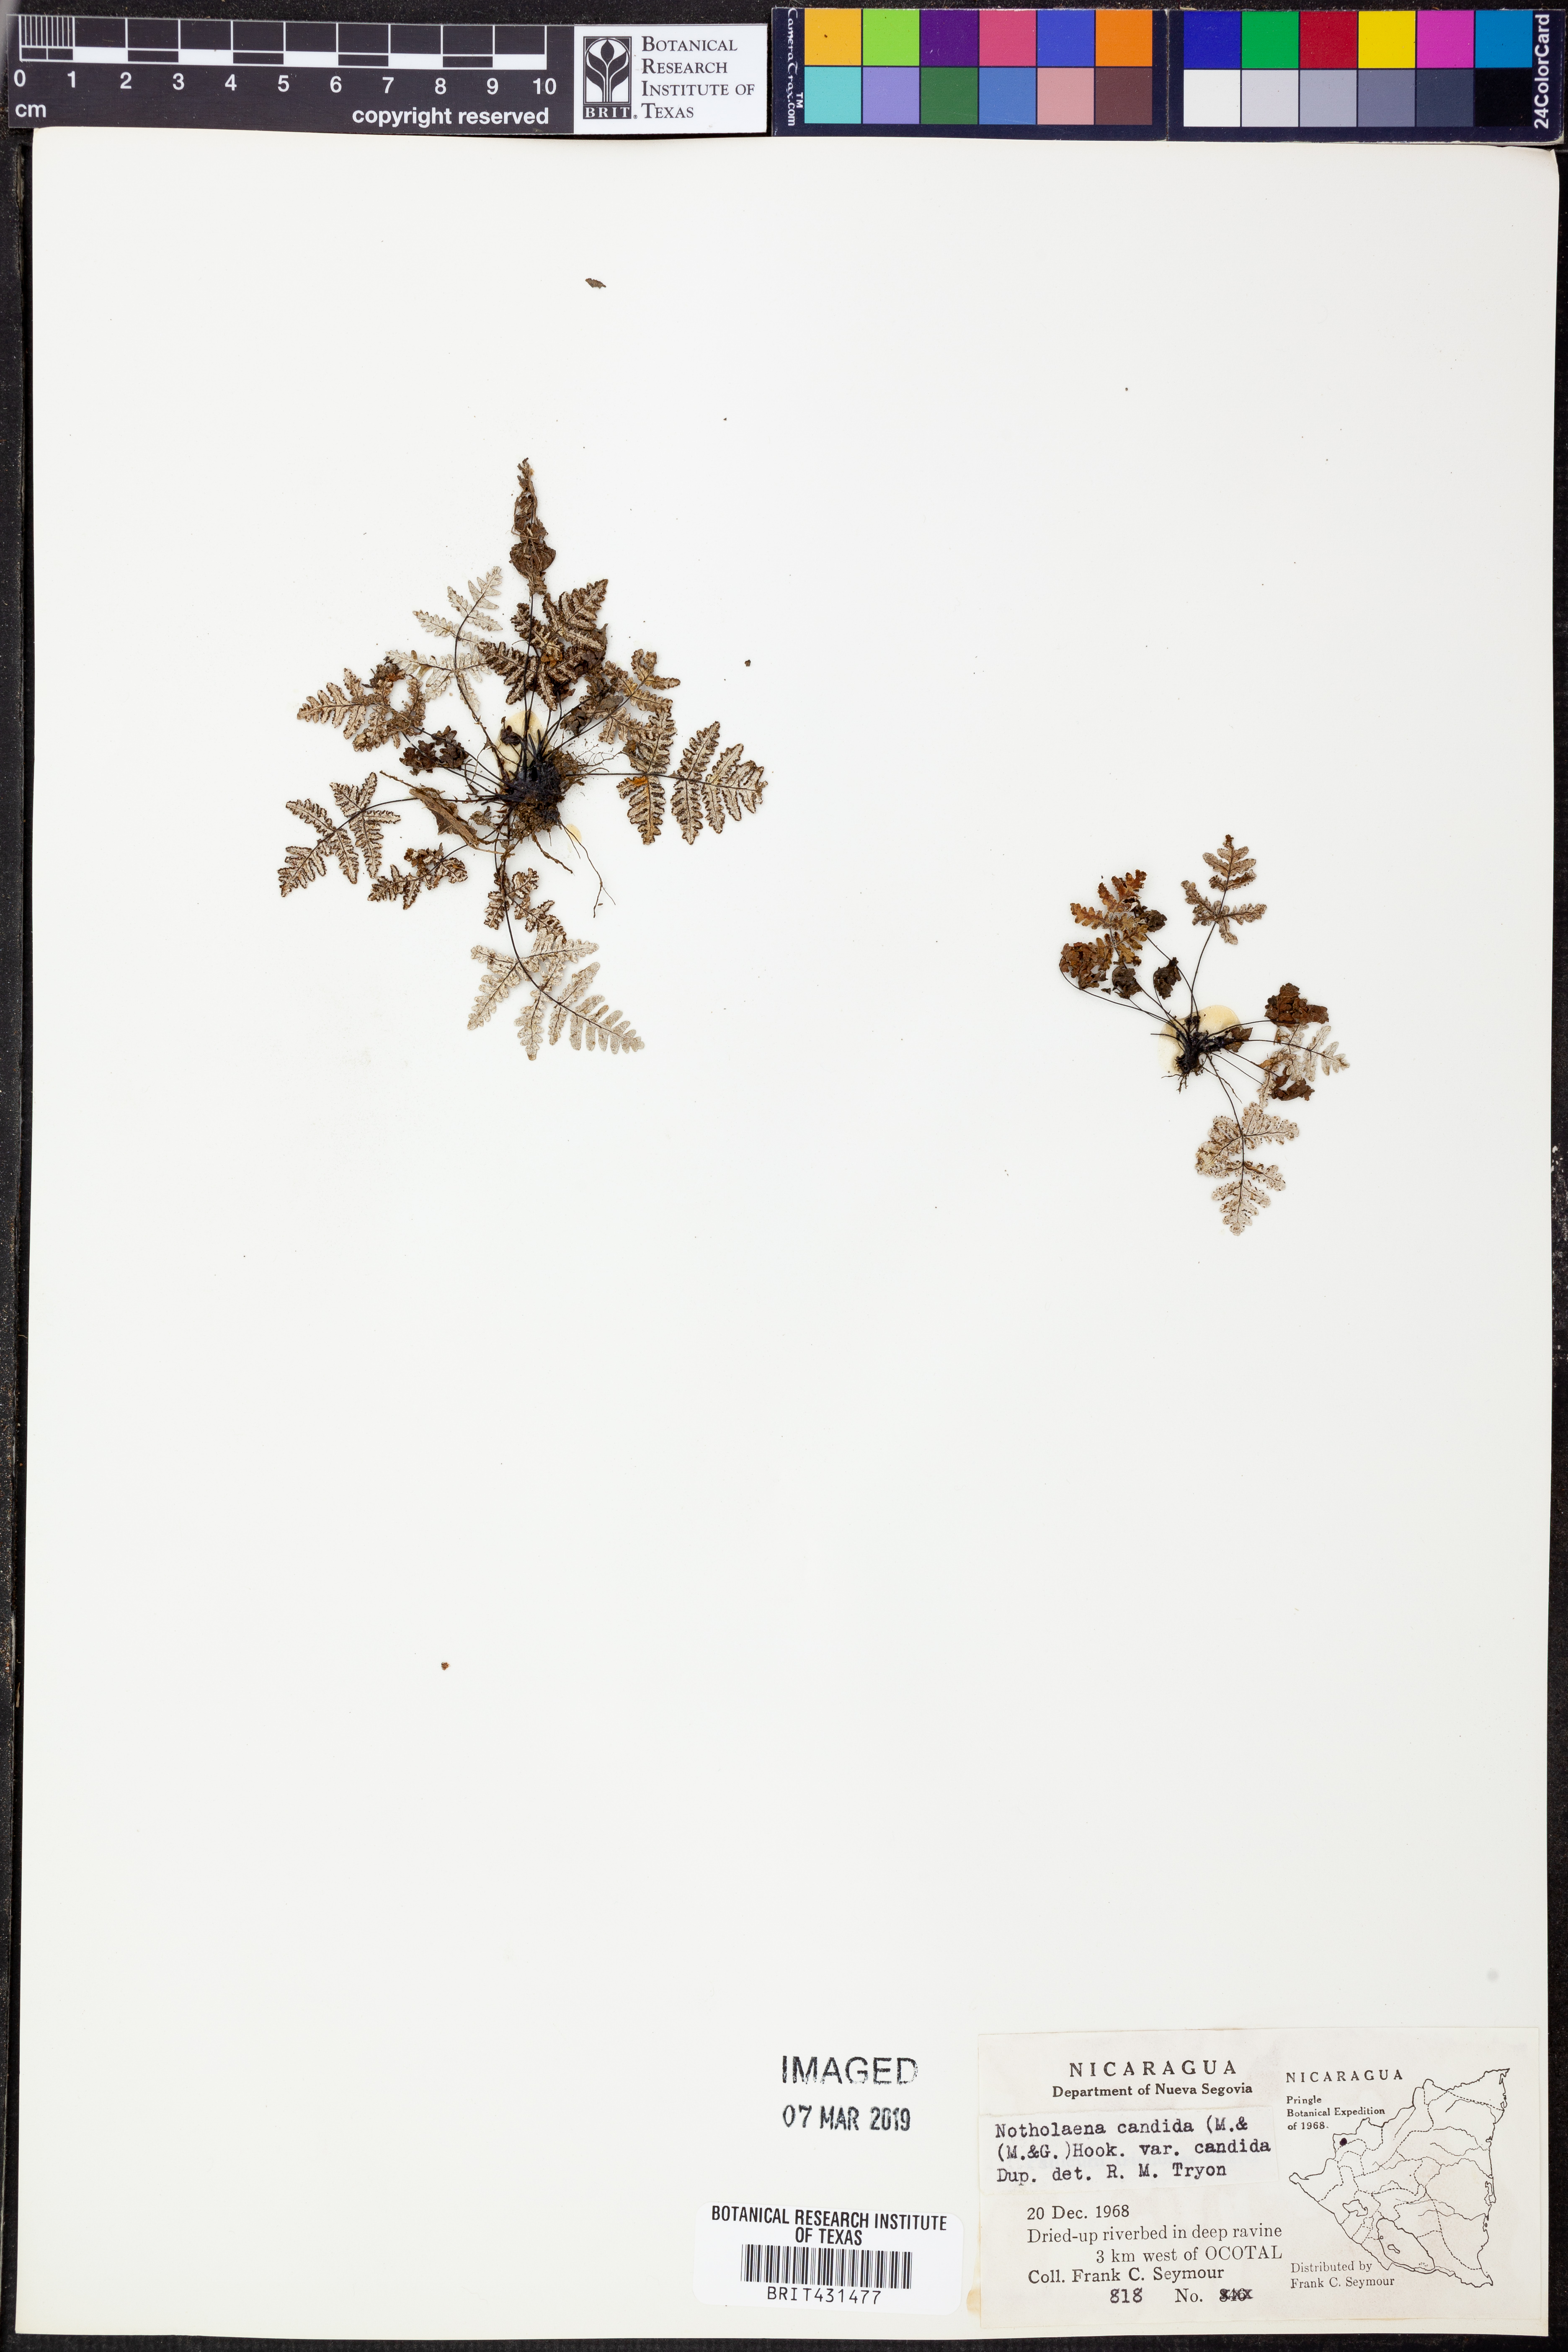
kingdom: Plantae
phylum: Tracheophyta
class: Polypodiopsida
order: Polypodiales
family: Pteridaceae
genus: Notholaena
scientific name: Notholaena candida
